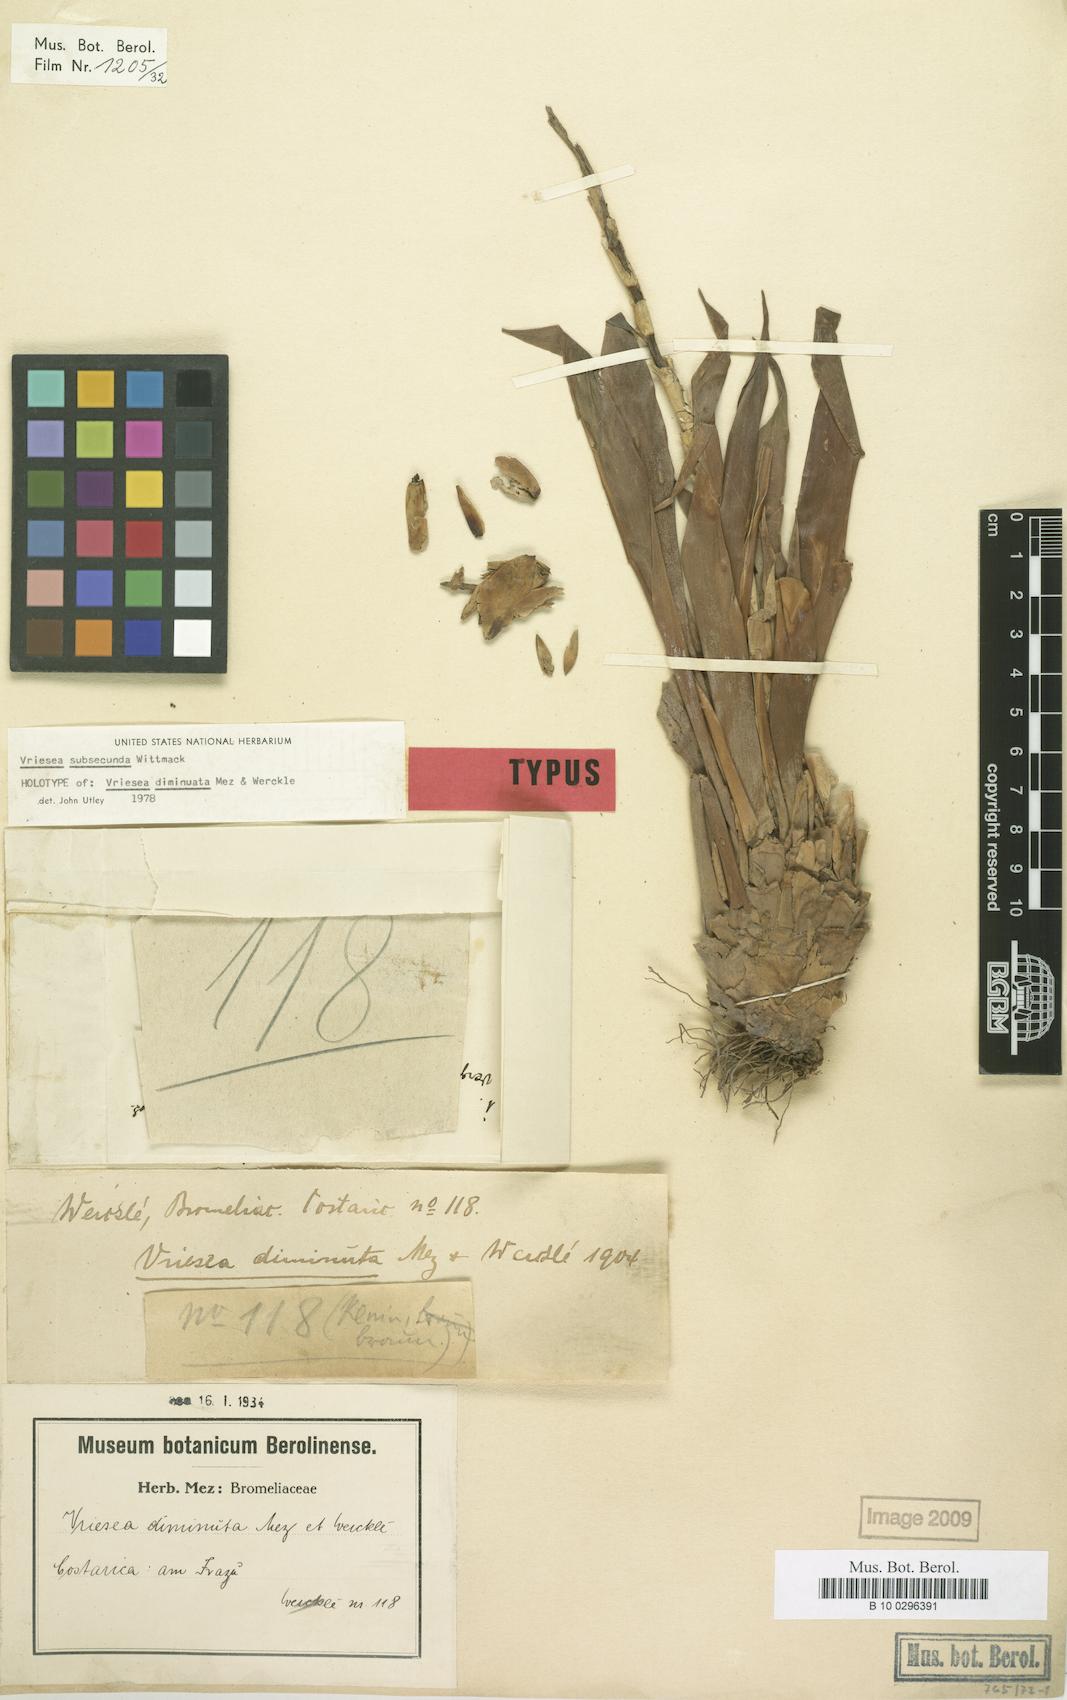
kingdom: Plantae
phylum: Tracheophyta
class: Liliopsida
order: Poales
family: Bromeliaceae
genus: Werauhia
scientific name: Werauhia subsecunda
